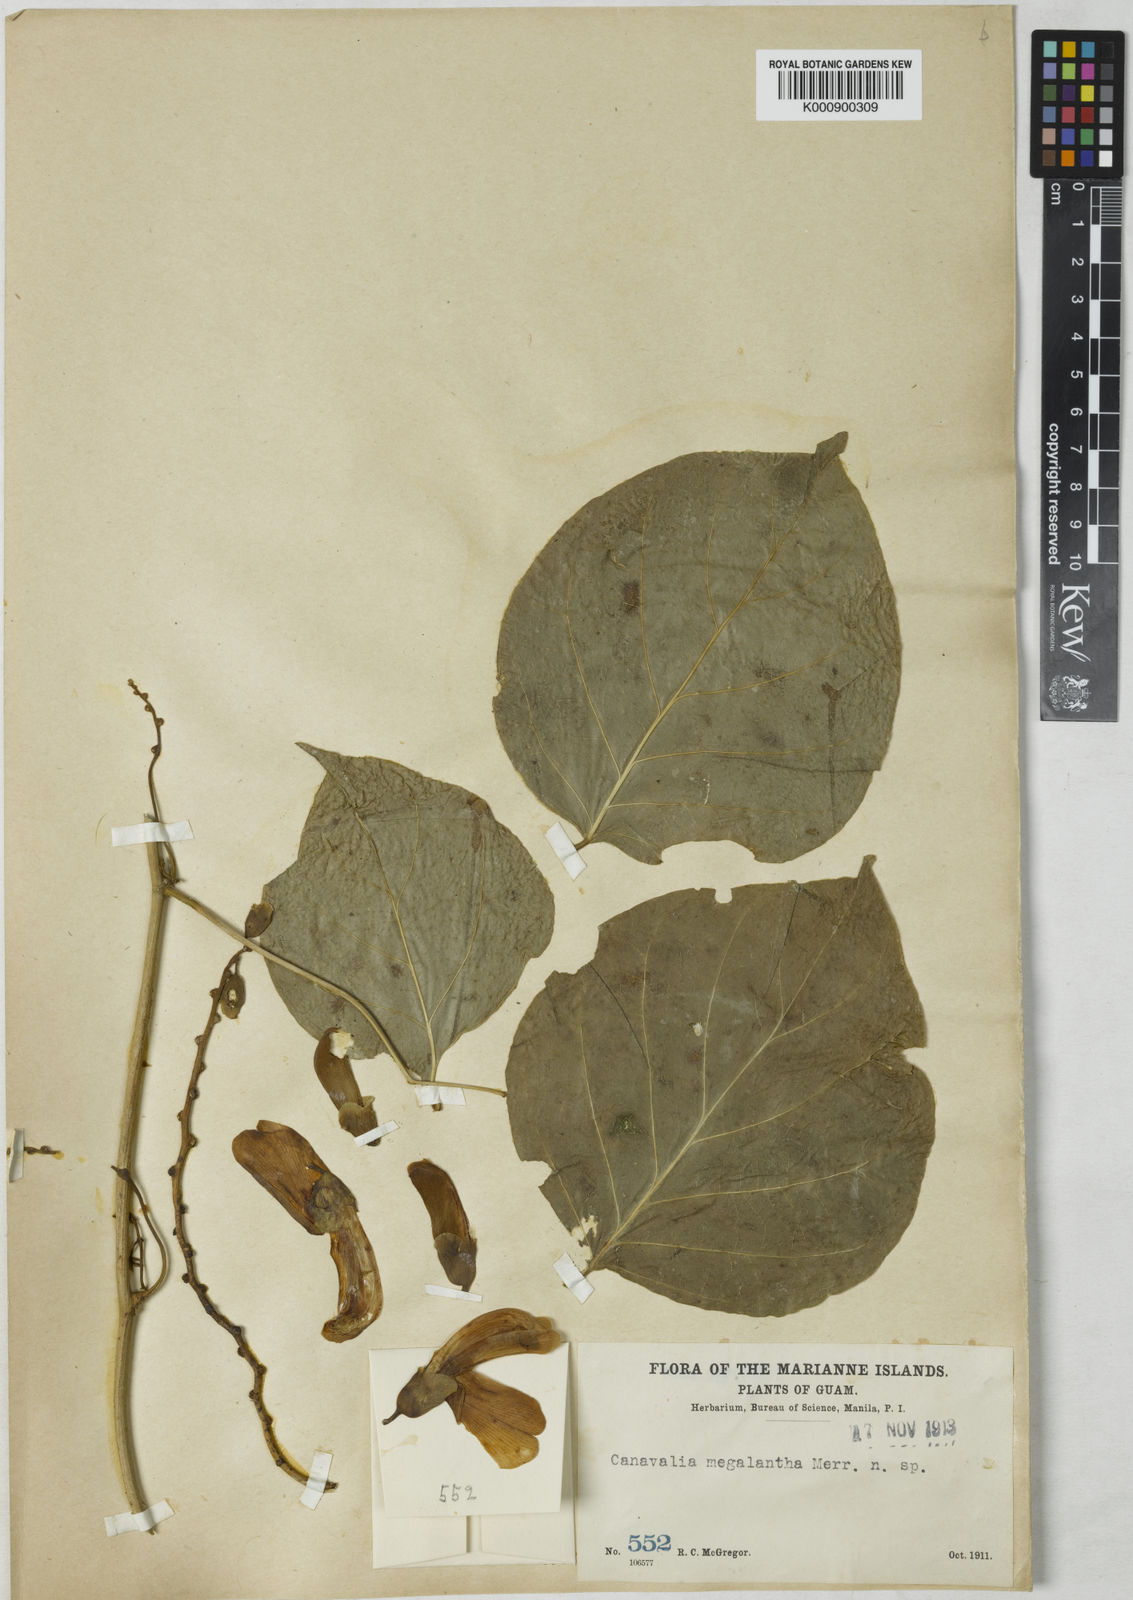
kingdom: Plantae
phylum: Tracheophyta
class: Magnoliopsida
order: Fabales
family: Fabaceae
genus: Canavalia
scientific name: Canavalia megalantha
